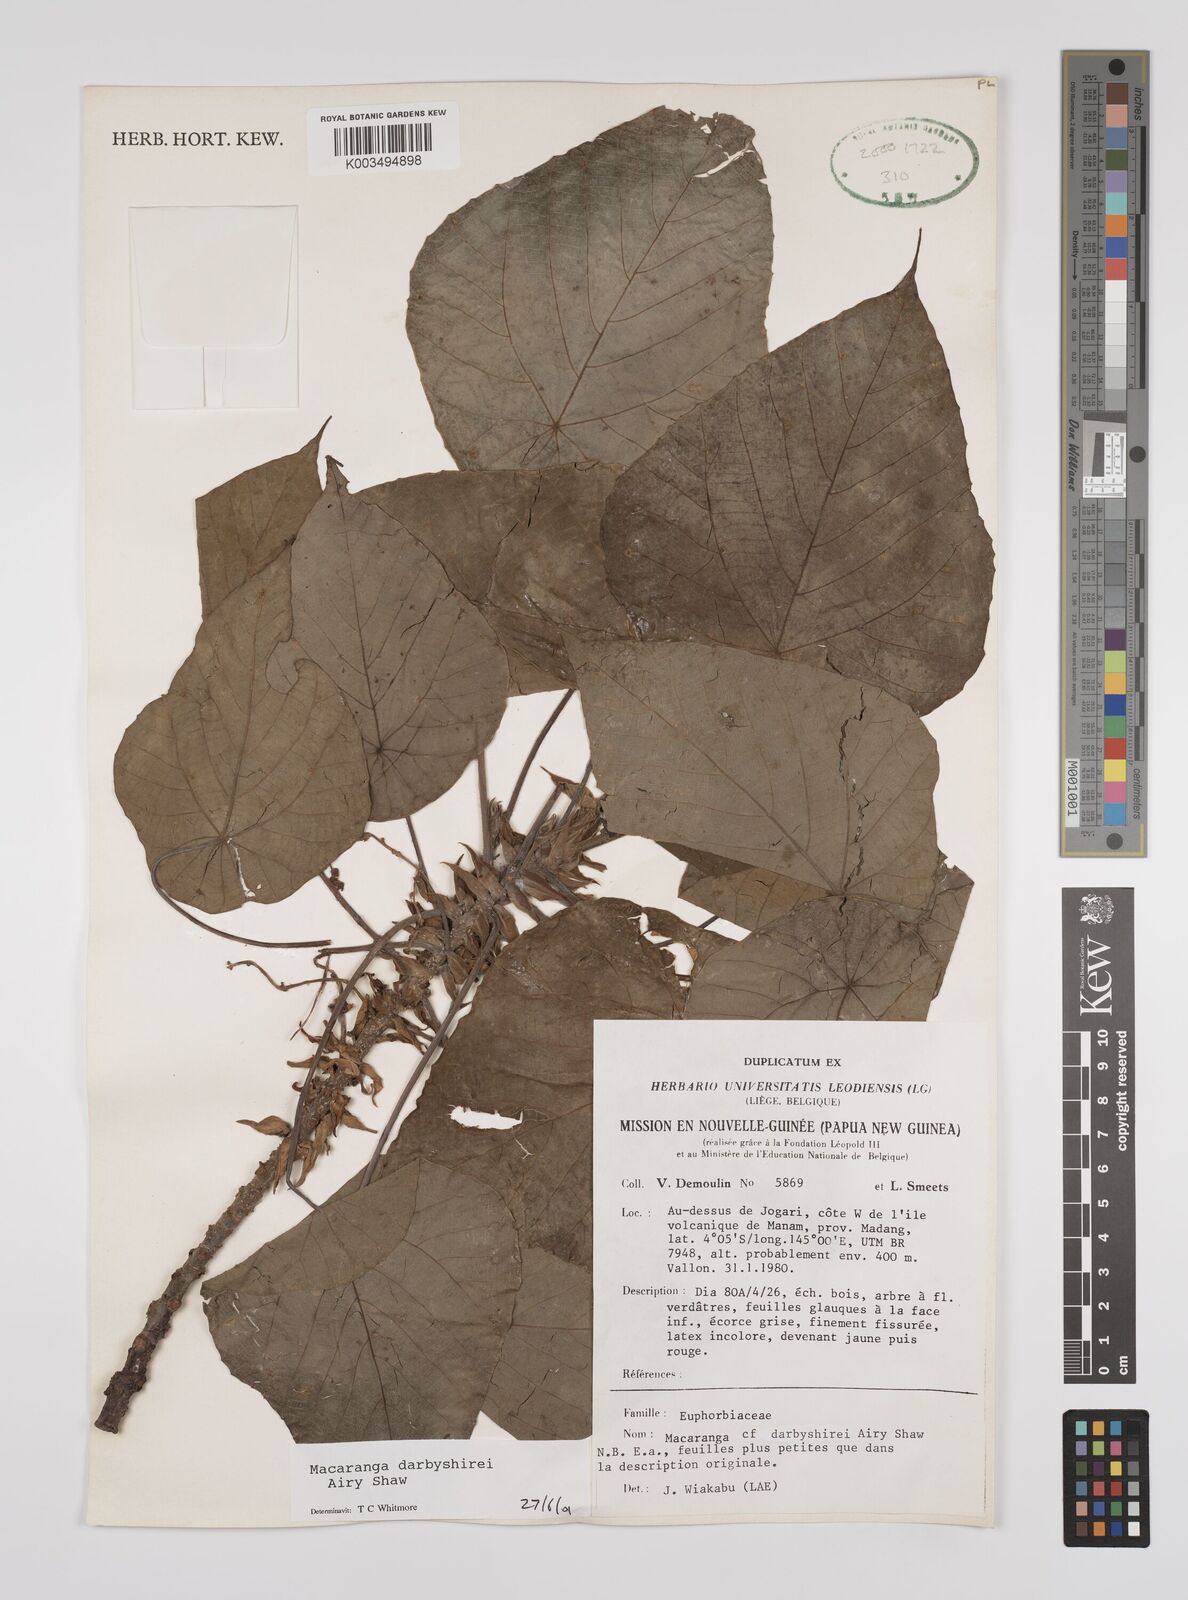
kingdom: Plantae
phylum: Tracheophyta
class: Magnoliopsida
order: Malpighiales
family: Euphorbiaceae
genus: Macaranga
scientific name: Macaranga darbyshirei
